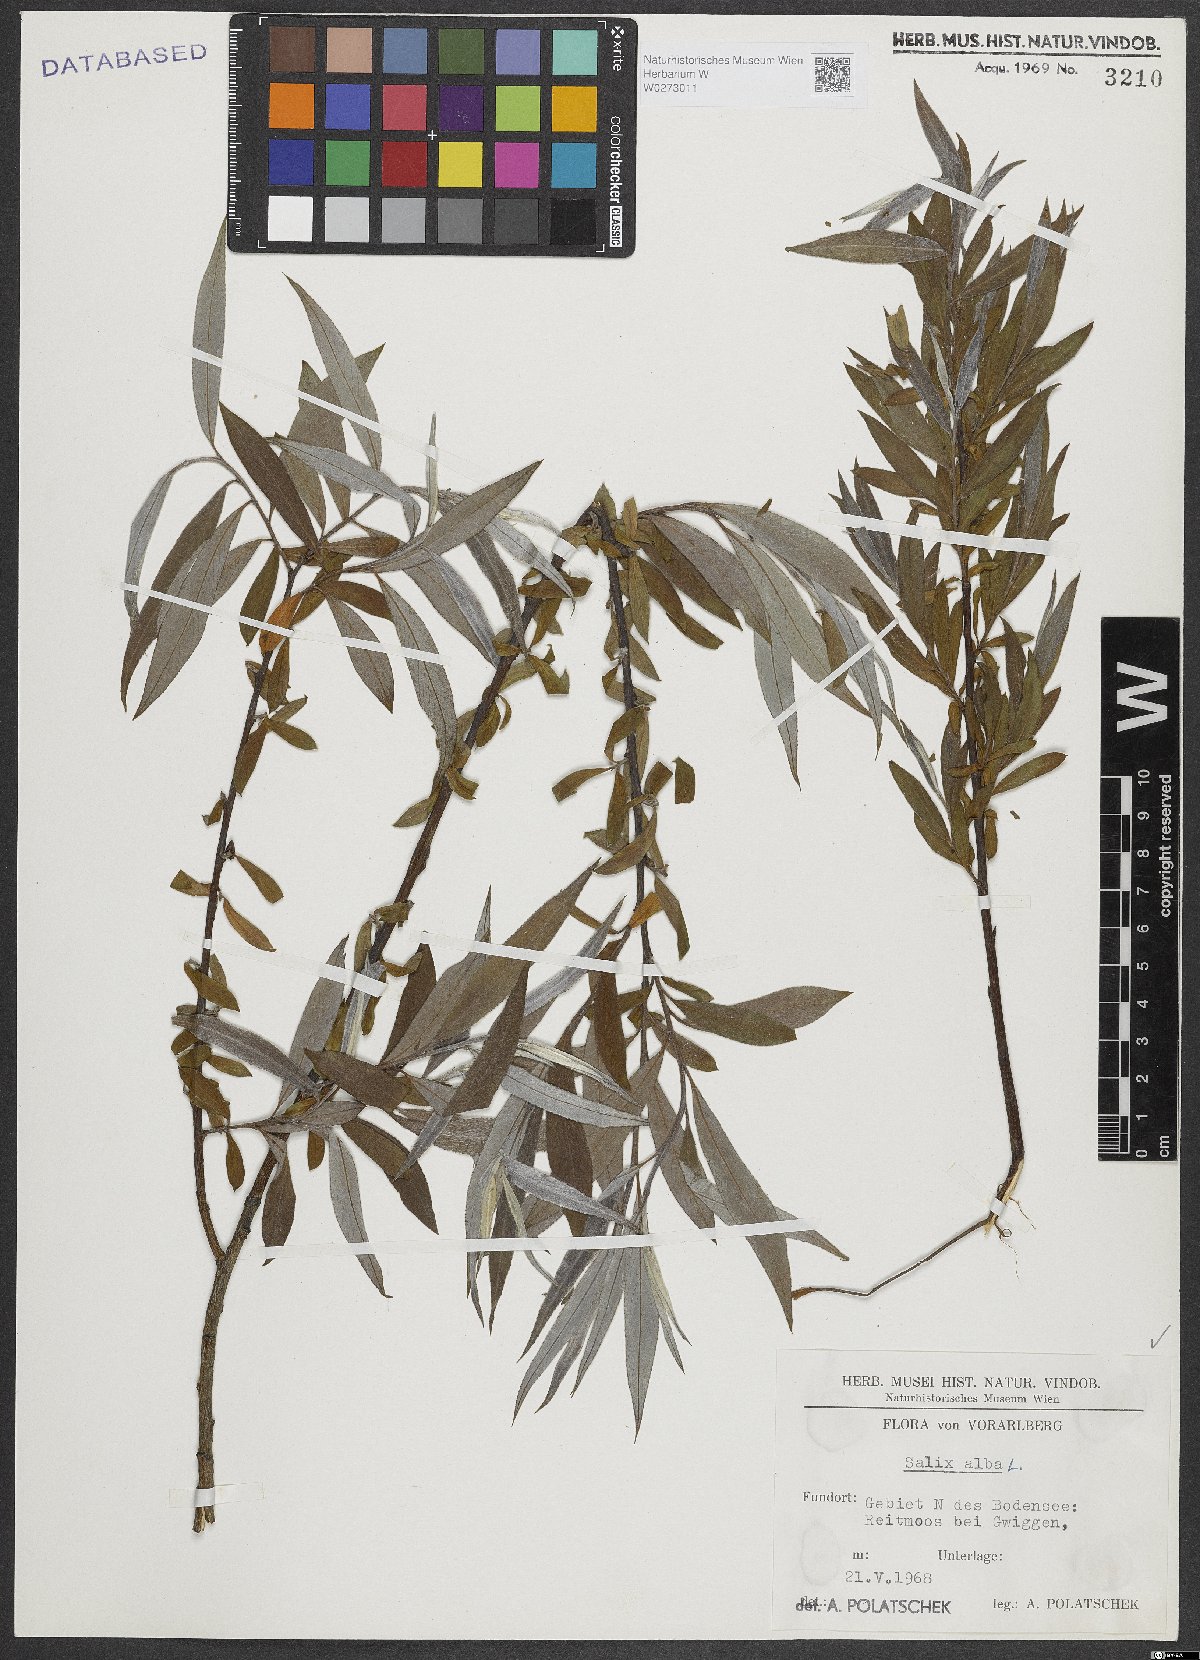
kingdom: Plantae
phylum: Tracheophyta
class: Magnoliopsida
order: Malpighiales
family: Salicaceae
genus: Salix
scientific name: Salix alba
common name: White willow
